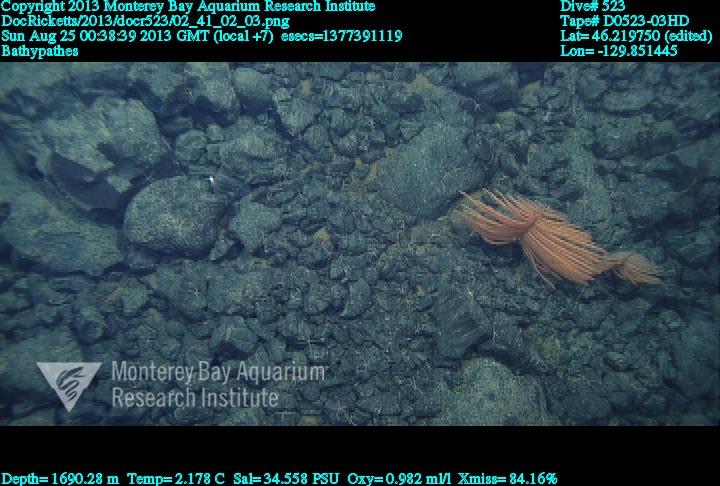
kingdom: Animalia
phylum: Cnidaria
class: Anthozoa
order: Antipatharia
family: Schizopathidae
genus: Bathypathes
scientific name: Bathypathes
